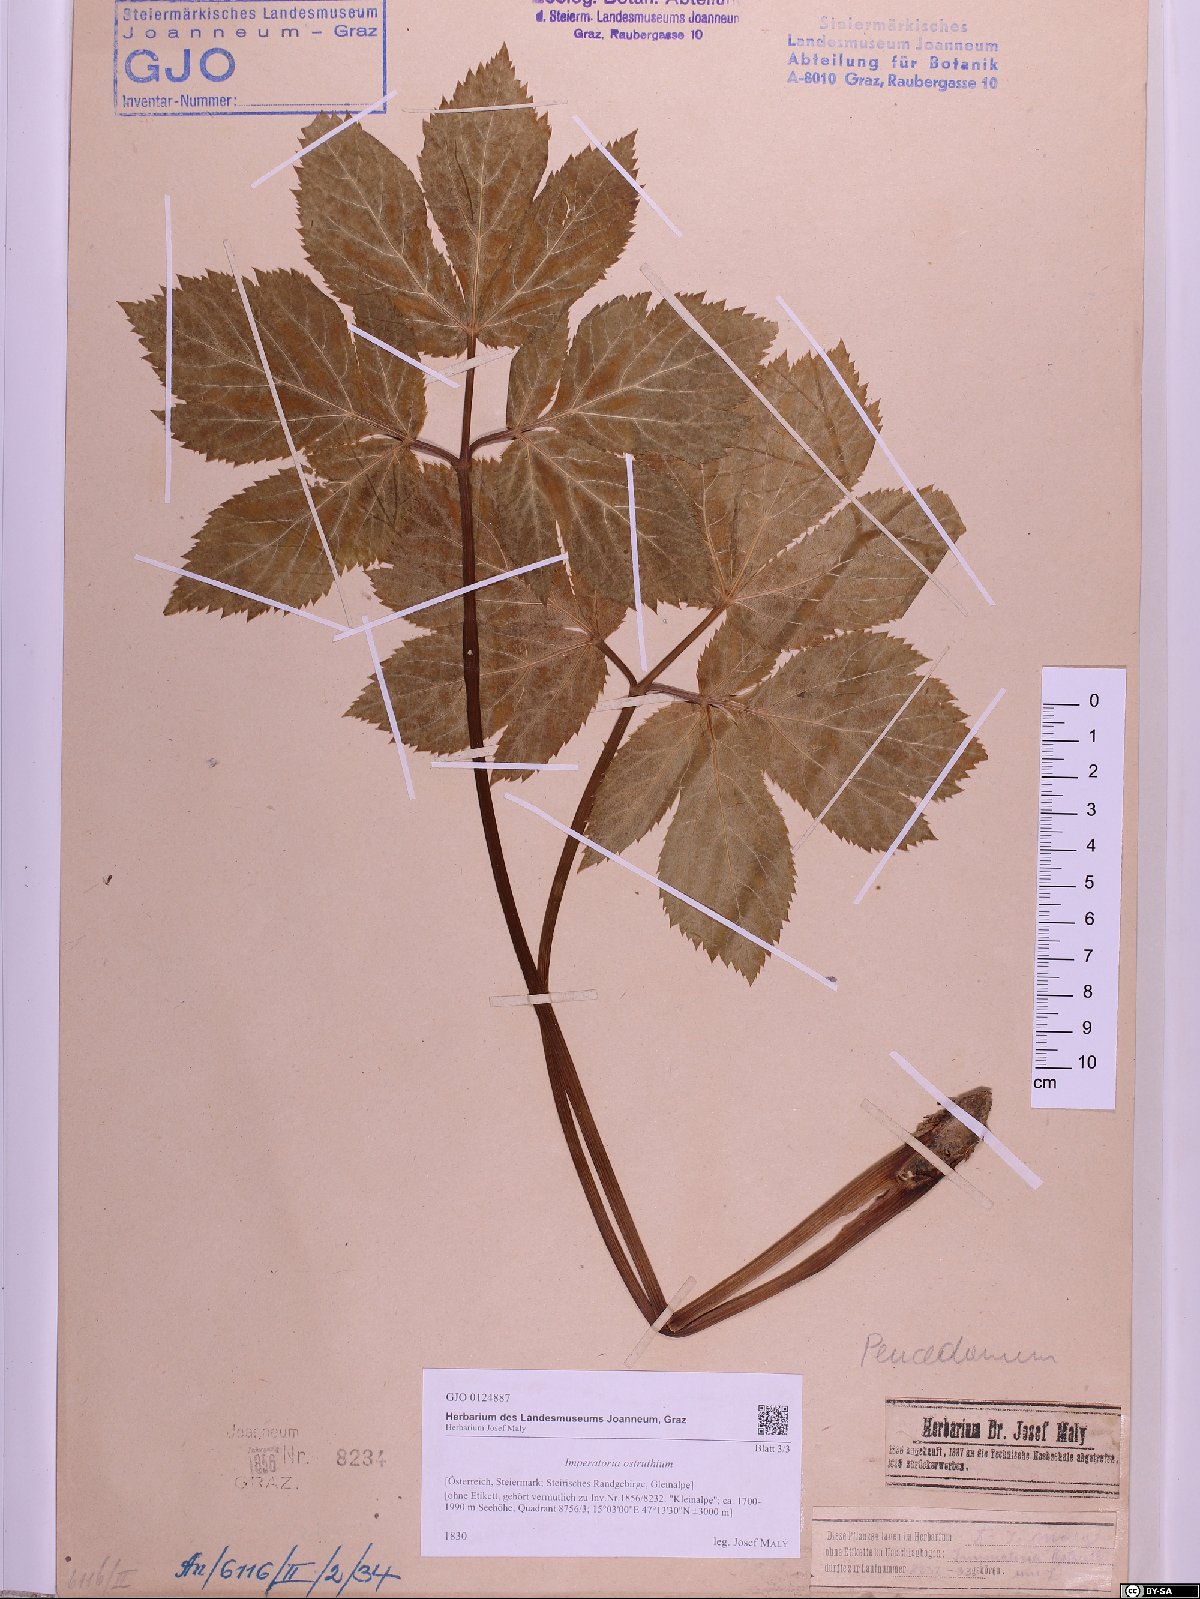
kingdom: Plantae
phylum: Tracheophyta
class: Magnoliopsida
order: Apiales
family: Apiaceae
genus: Imperatoria
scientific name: Imperatoria ostruthium
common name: Masterwort
